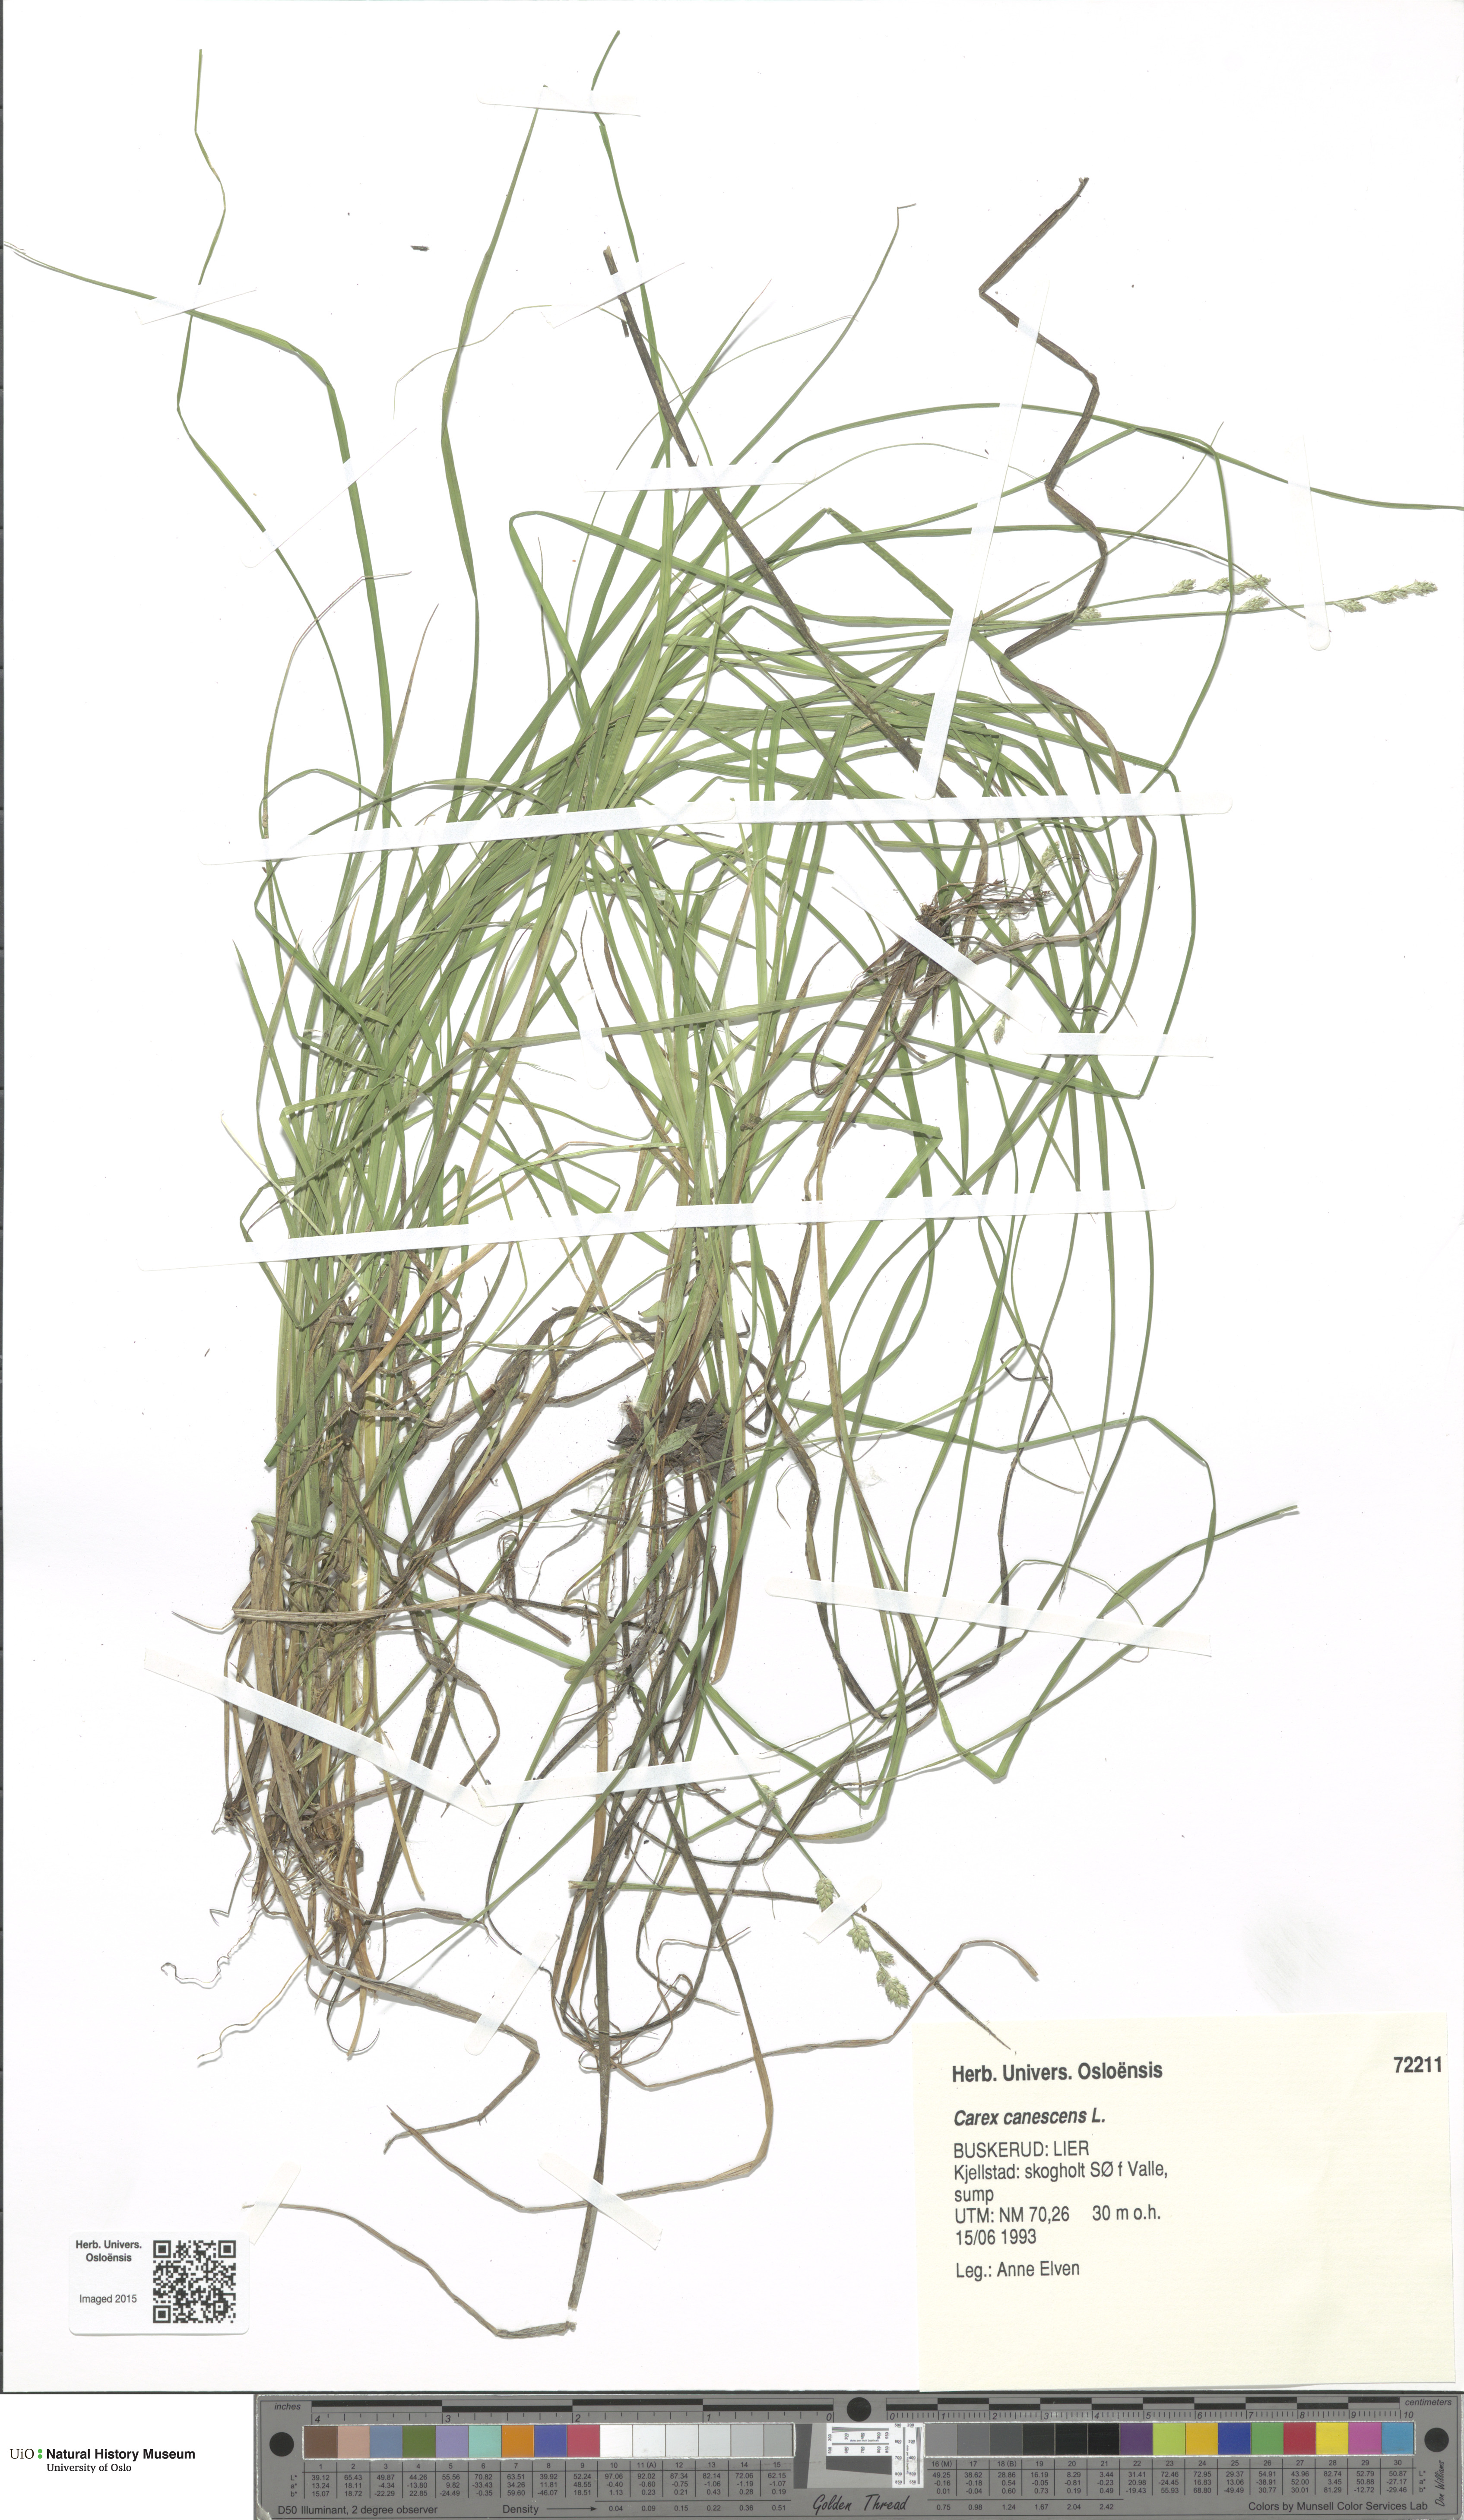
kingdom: Plantae
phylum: Tracheophyta
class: Liliopsida
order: Poales
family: Cyperaceae
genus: Carex
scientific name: Carex canescens
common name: White sedge
